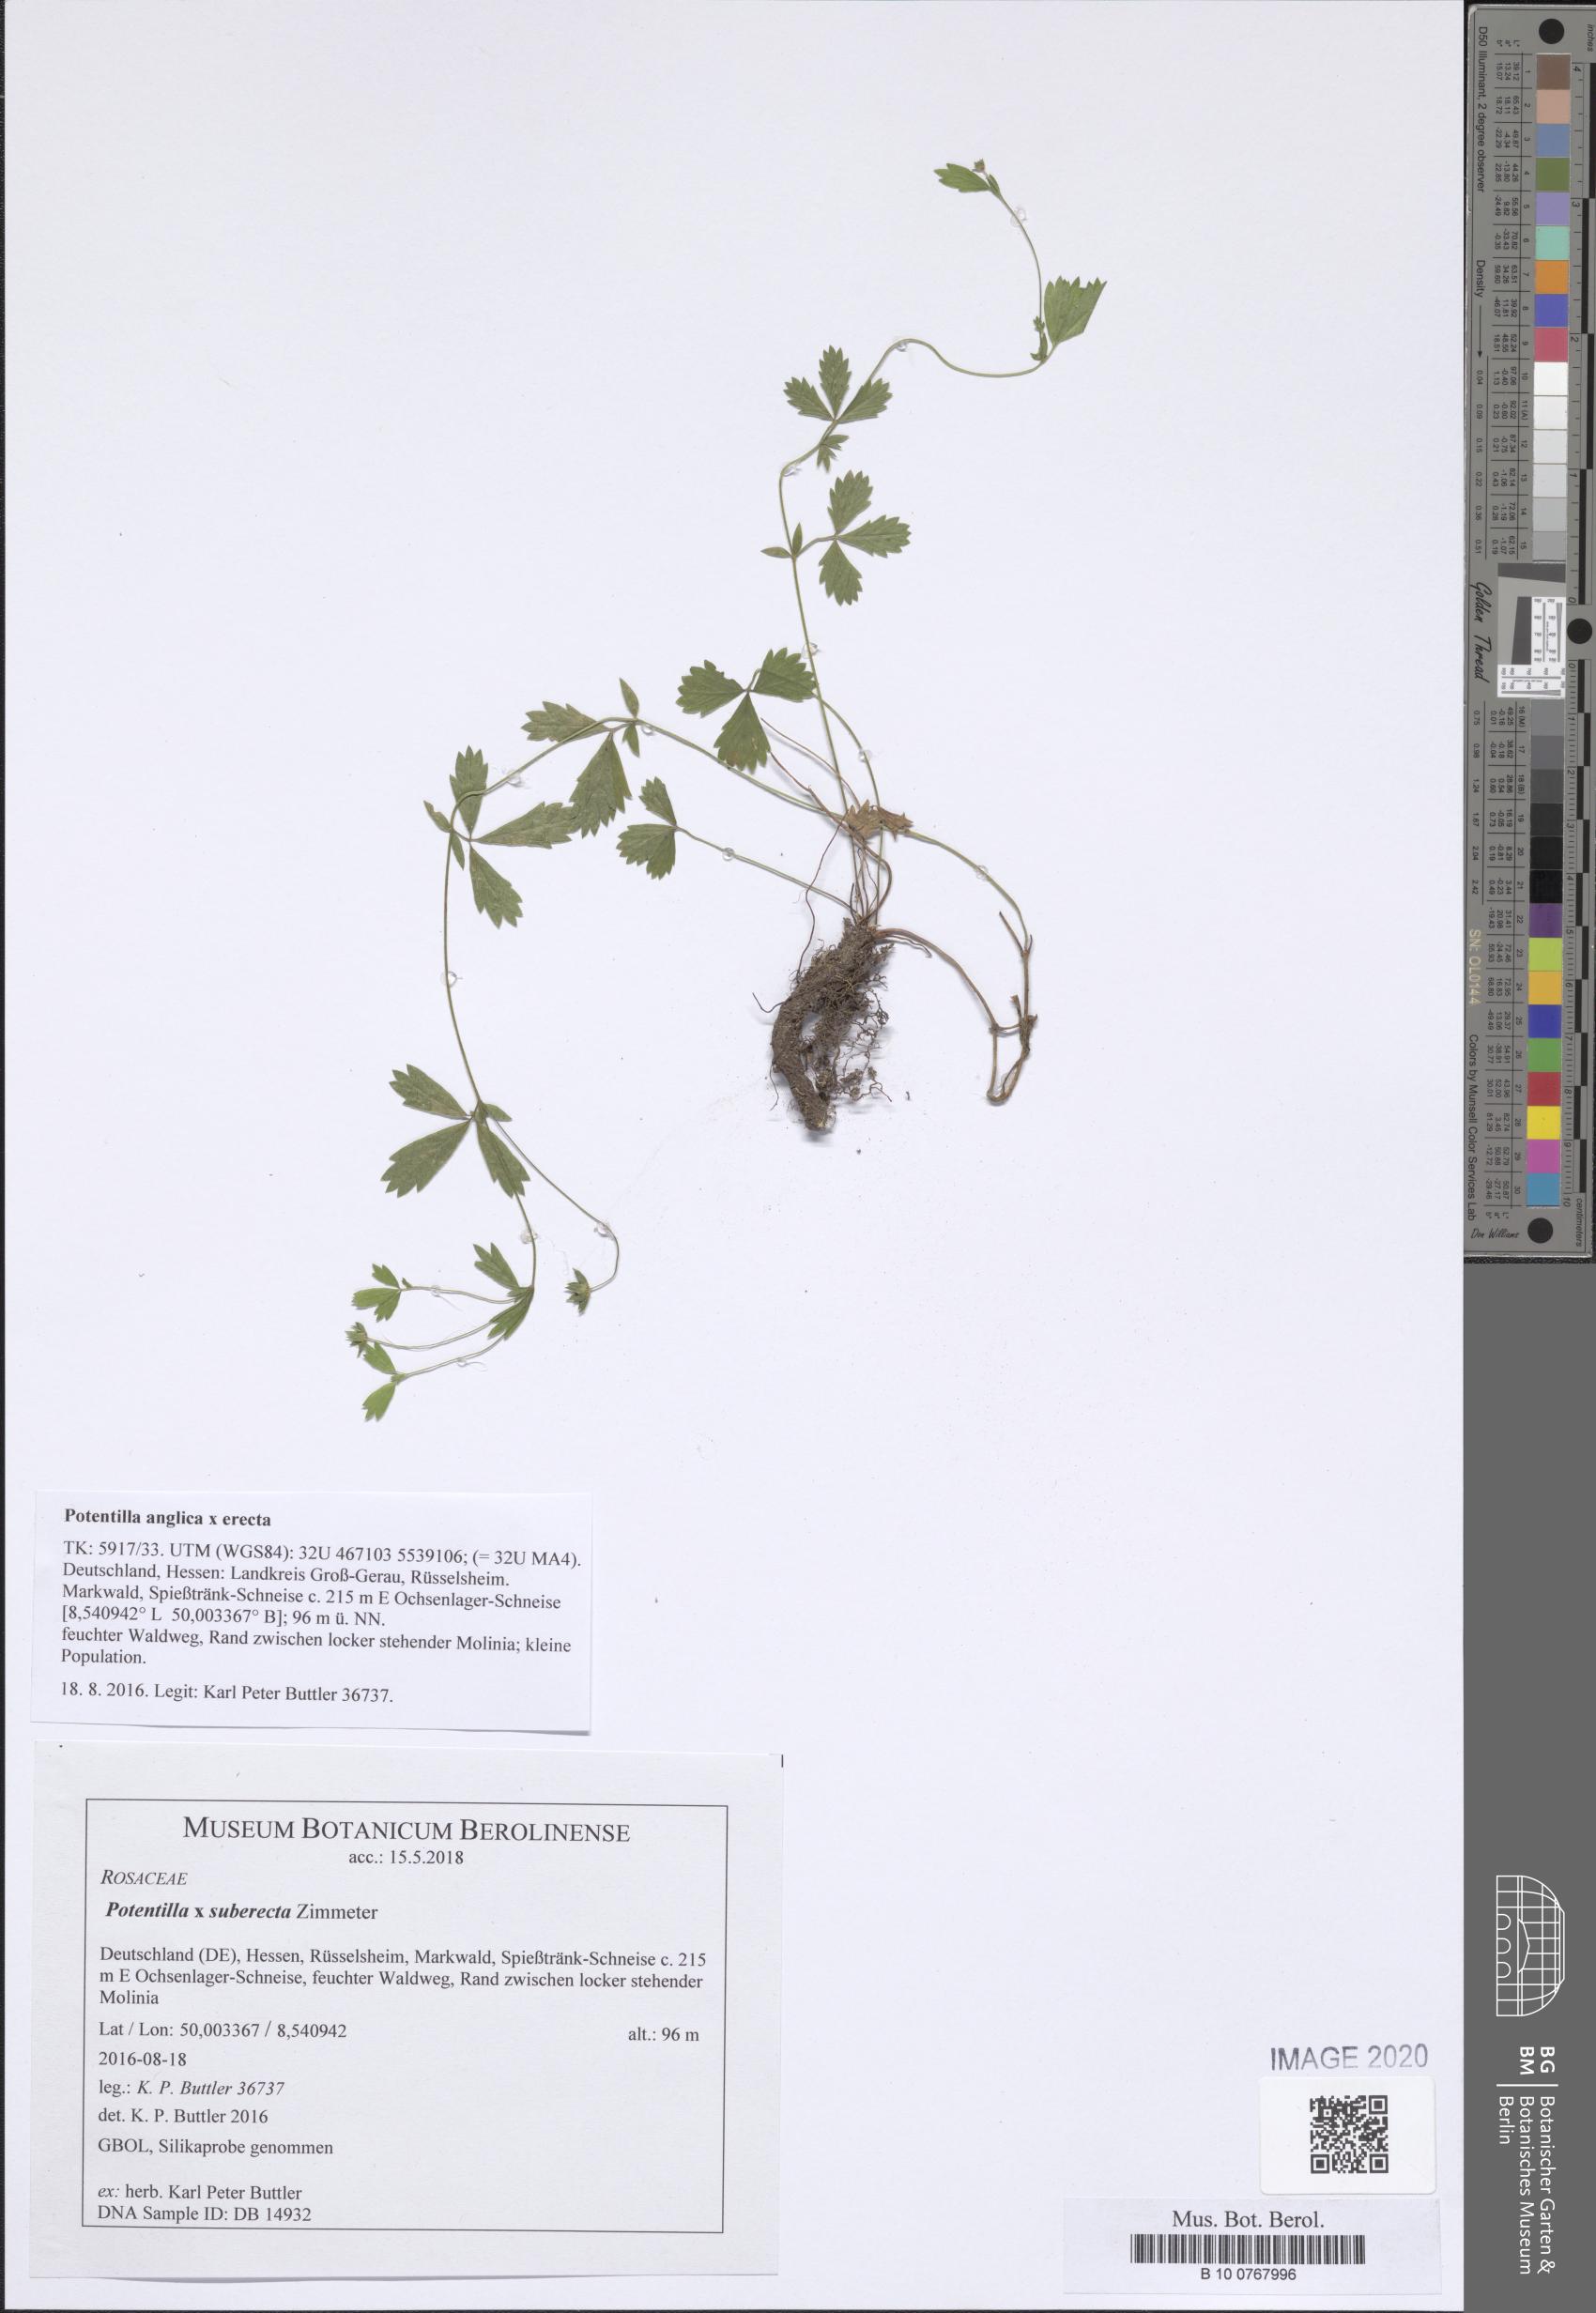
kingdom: Plantae
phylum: Tracheophyta
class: Magnoliopsida
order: Rosales
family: Rosaceae
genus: Potentilla
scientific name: Potentilla suberecta
